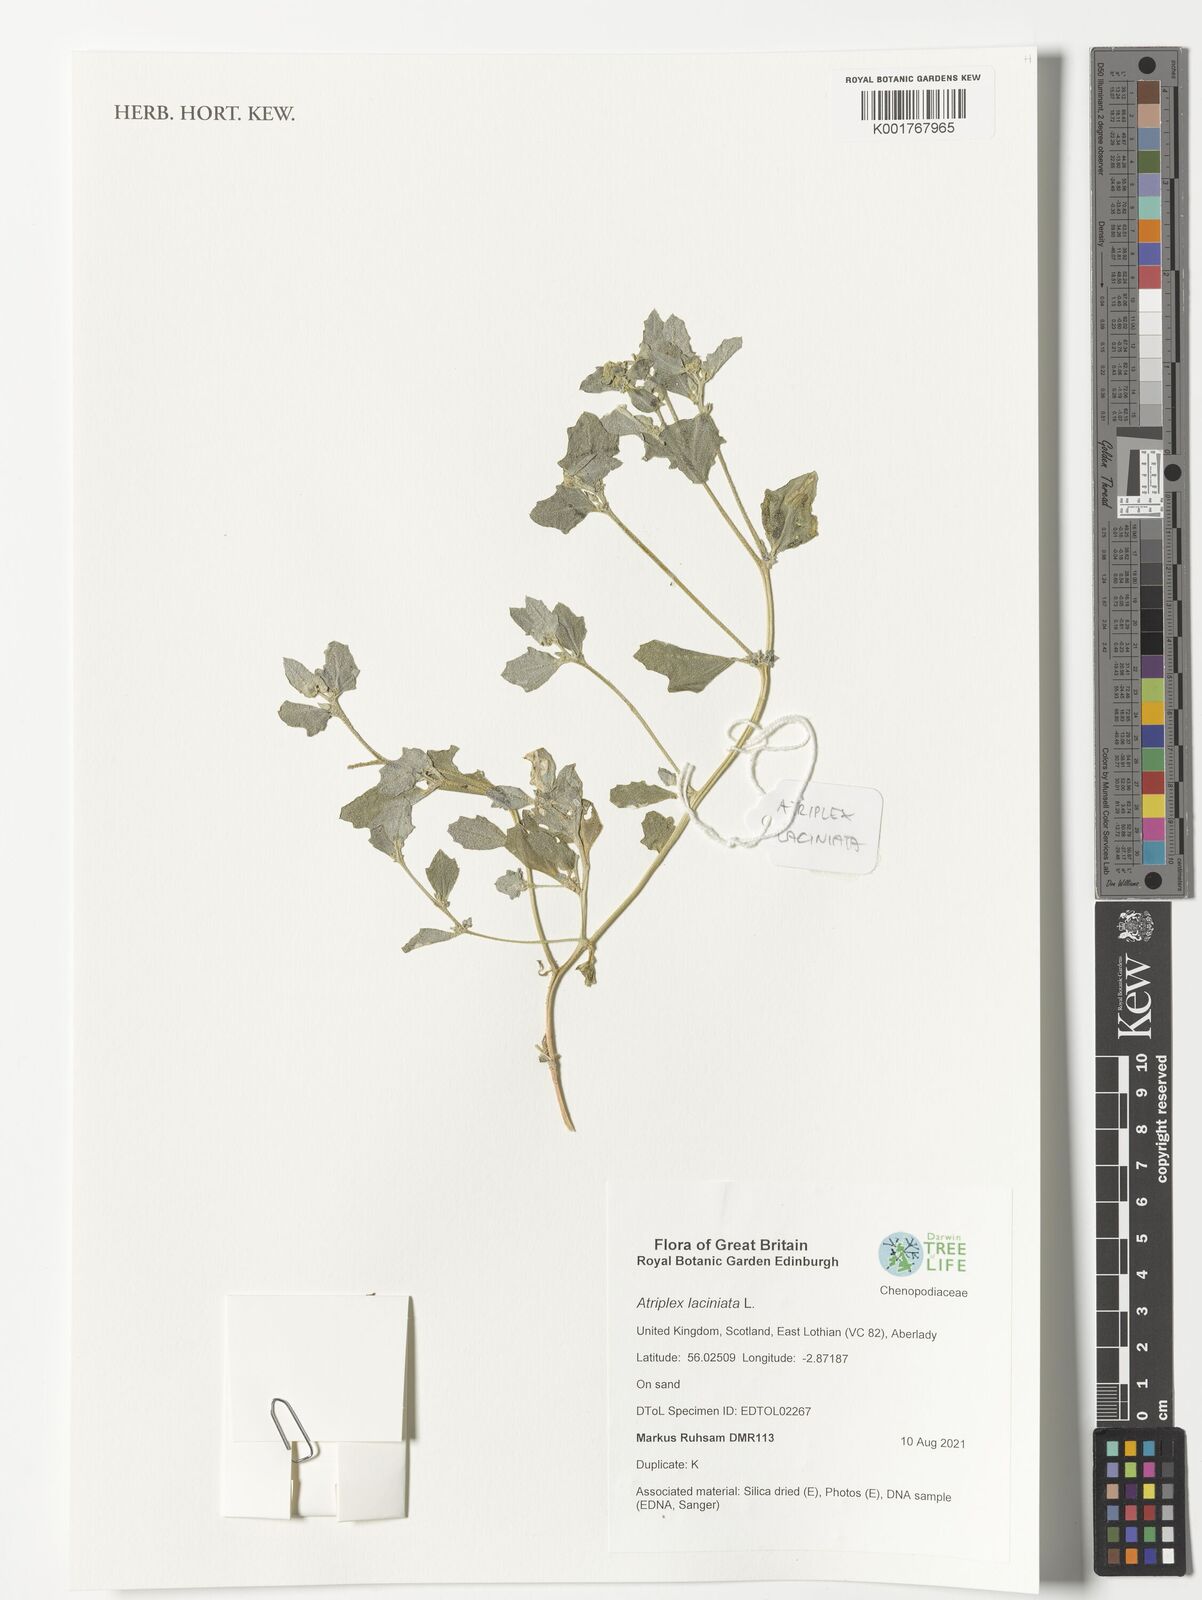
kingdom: Plantae
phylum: Tracheophyta
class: Magnoliopsida
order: Caryophyllales
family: Amaranthaceae
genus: Atriplex
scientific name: Atriplex laciniata
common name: Frosted orache
